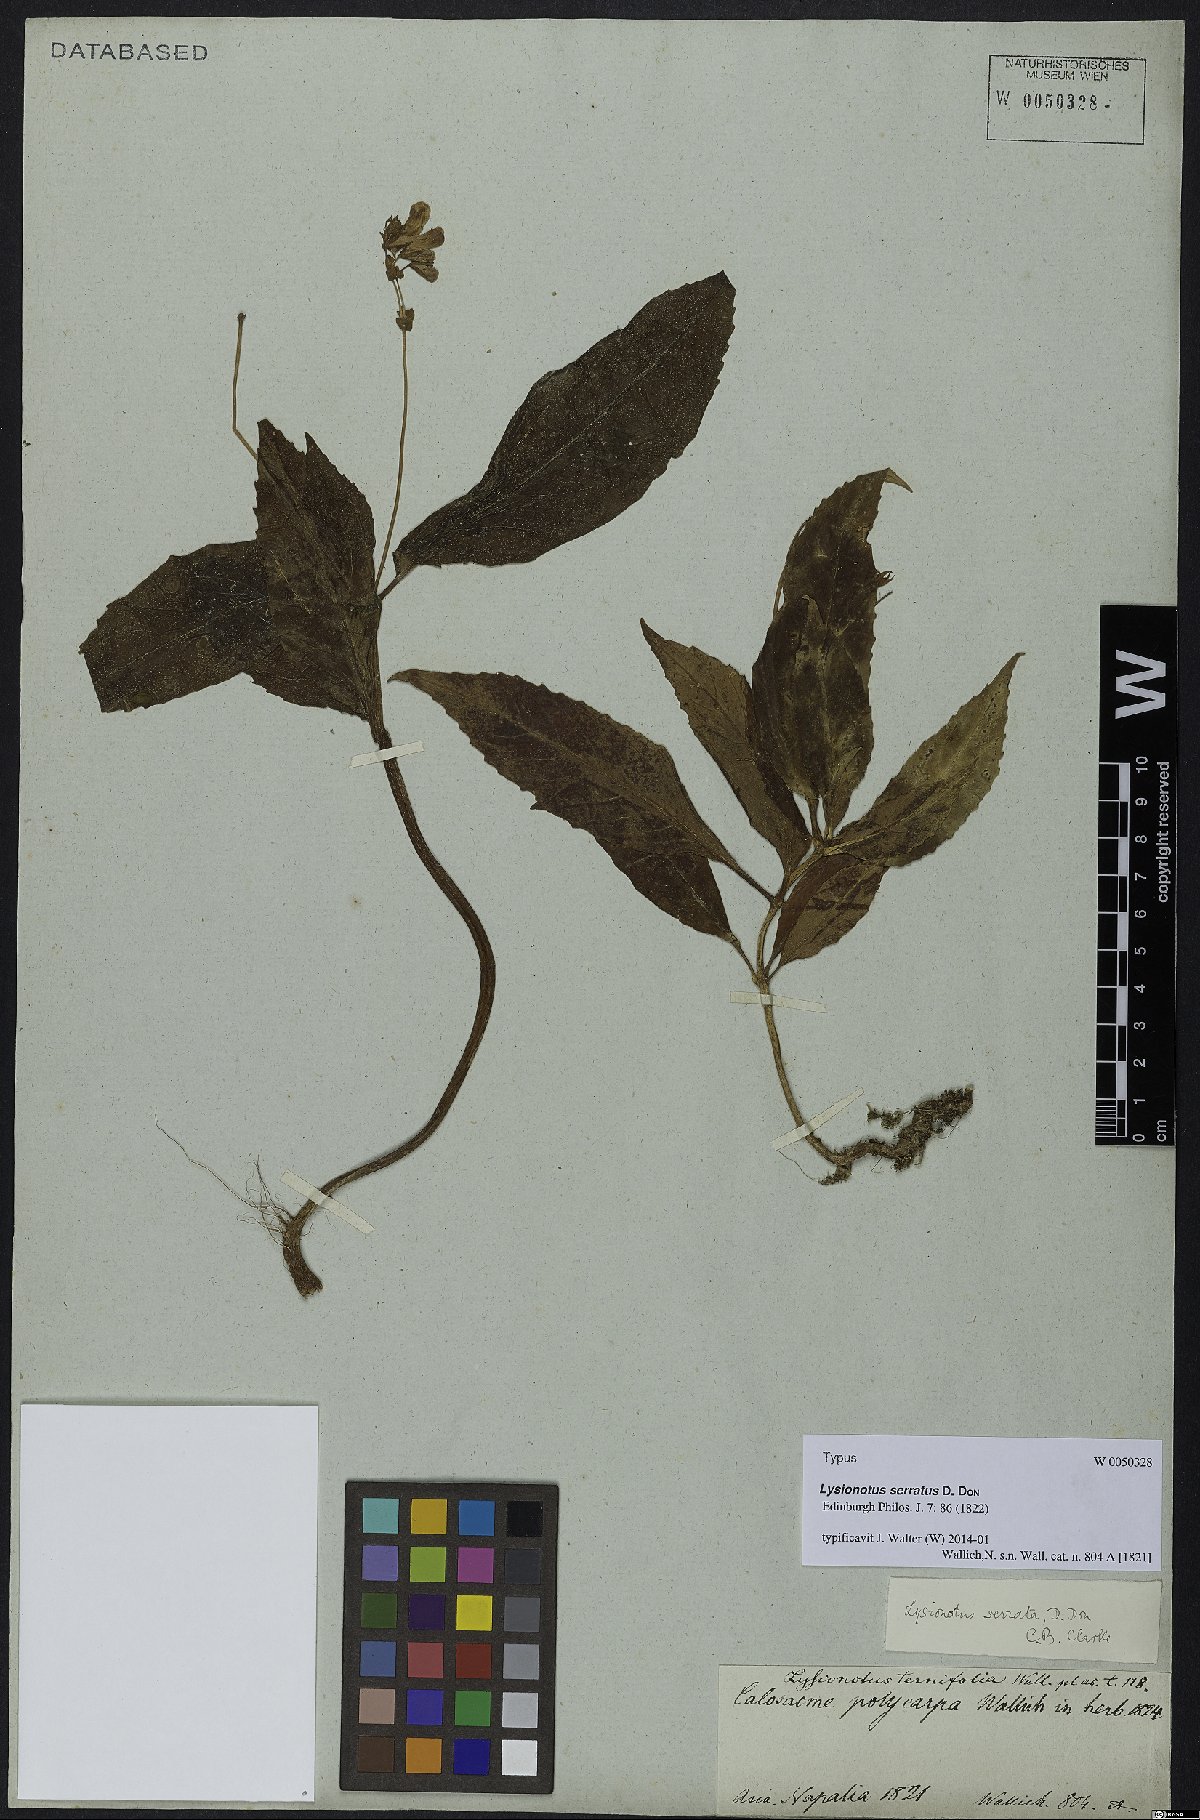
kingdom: Plantae
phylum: Tracheophyta
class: Magnoliopsida
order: Lamiales
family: Gesneriaceae
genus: Lysionotus
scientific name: Lysionotus serratus
